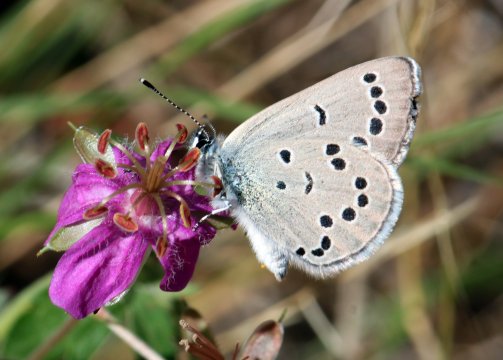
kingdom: Animalia
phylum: Arthropoda
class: Insecta
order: Lepidoptera
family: Lycaenidae
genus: Glaucopsyche
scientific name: Glaucopsyche lygdamus
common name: Silvery Blue
